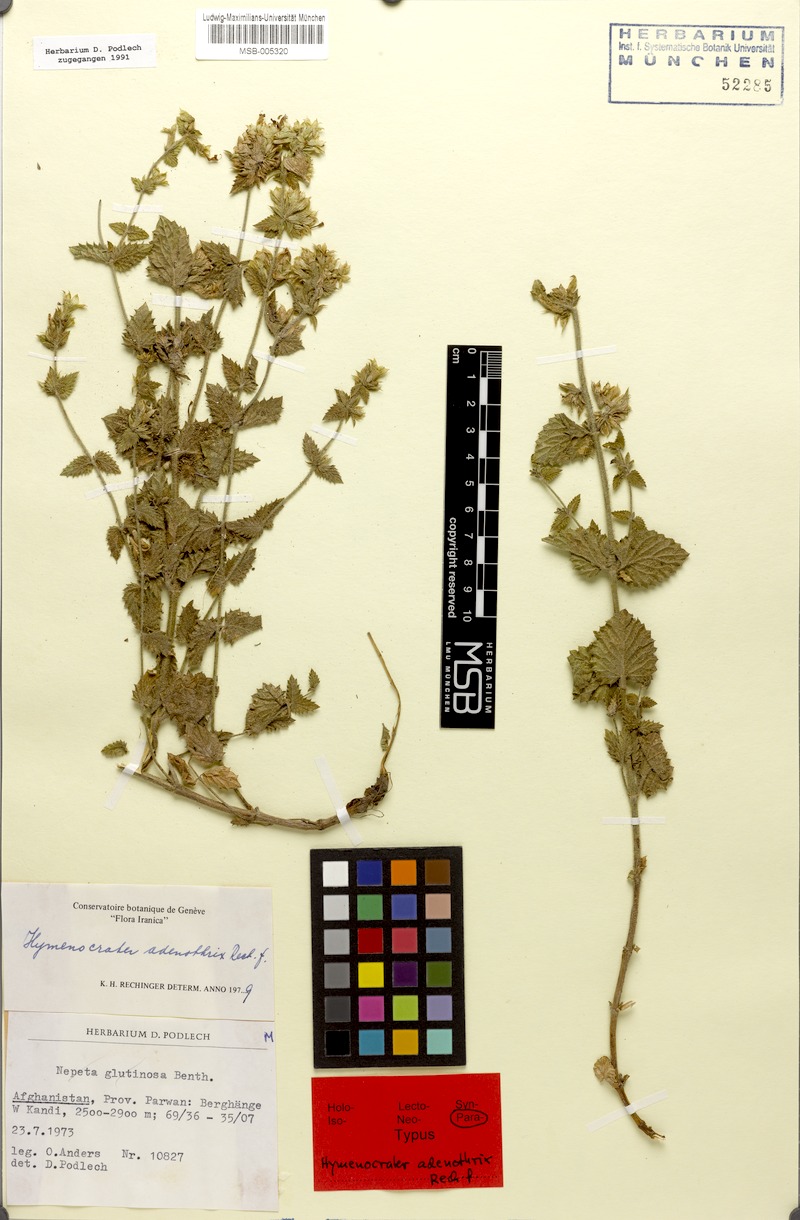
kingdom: Plantae
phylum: Tracheophyta
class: Magnoliopsida
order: Lamiales
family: Lamiaceae
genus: Nepeta
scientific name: Nepeta adenothrix
